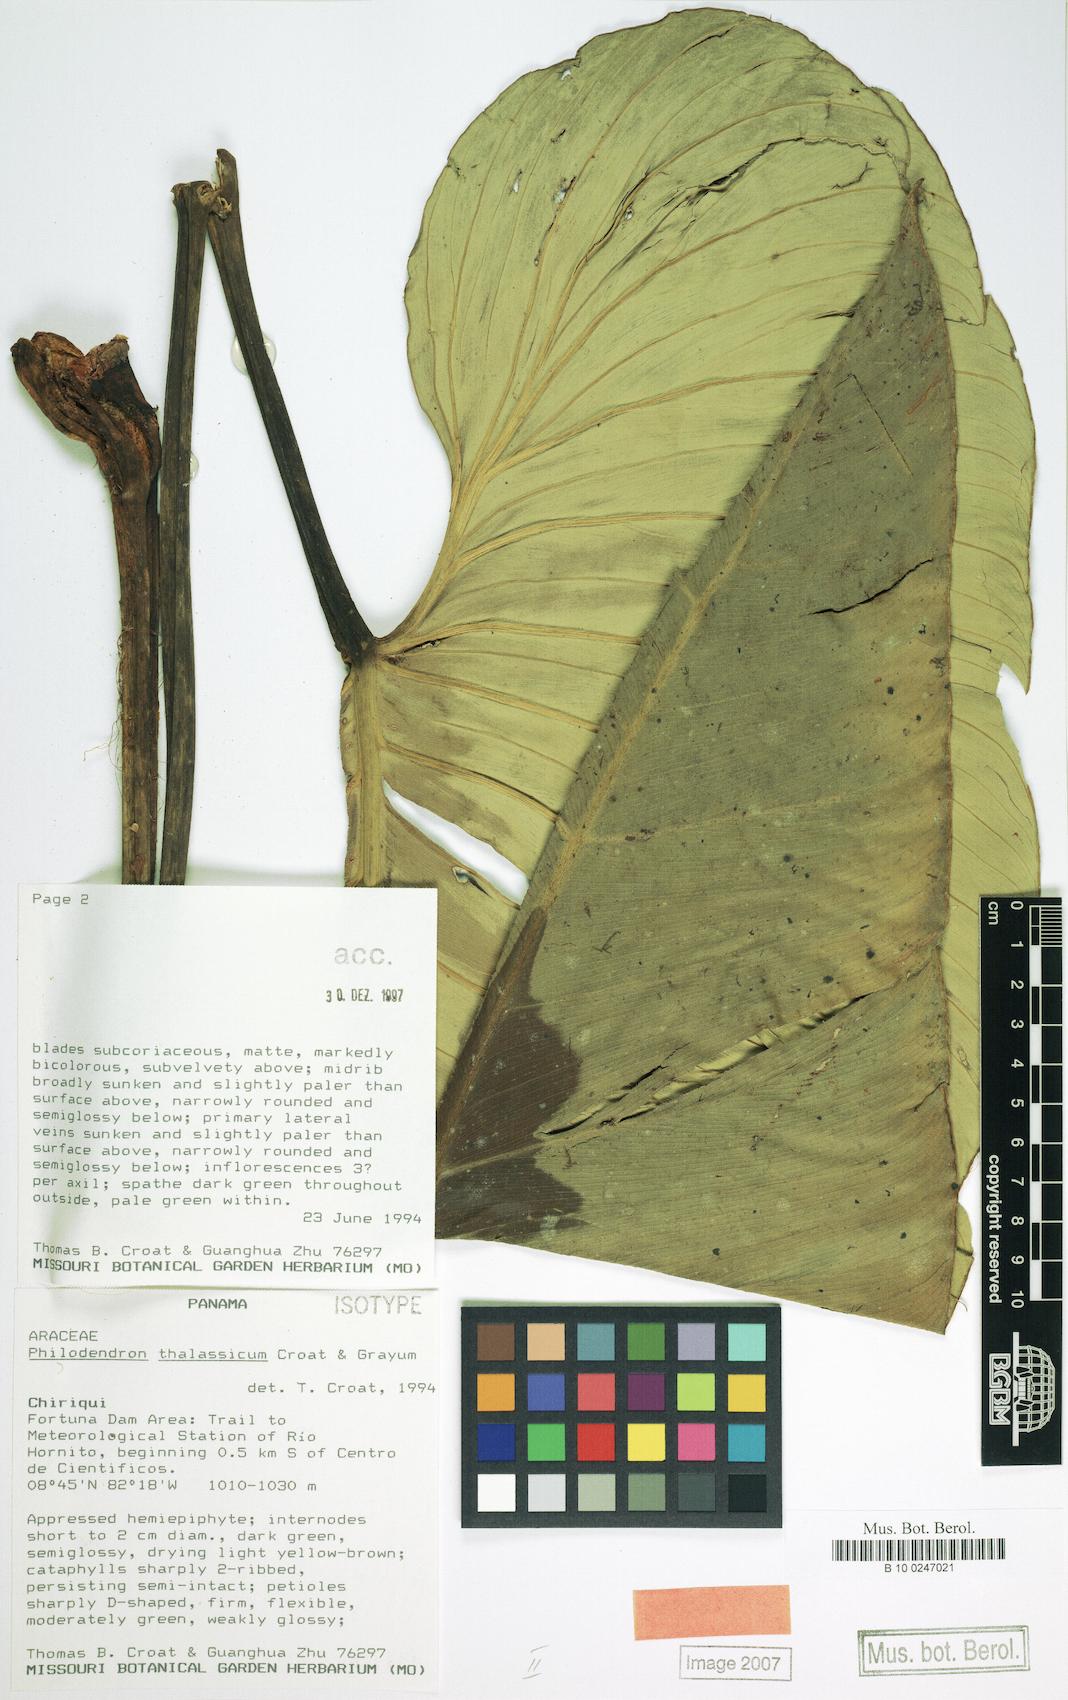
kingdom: Plantae
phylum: Tracheophyta
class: Liliopsida
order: Alismatales
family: Araceae
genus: Philodendron
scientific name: Philodendron thalassicum
